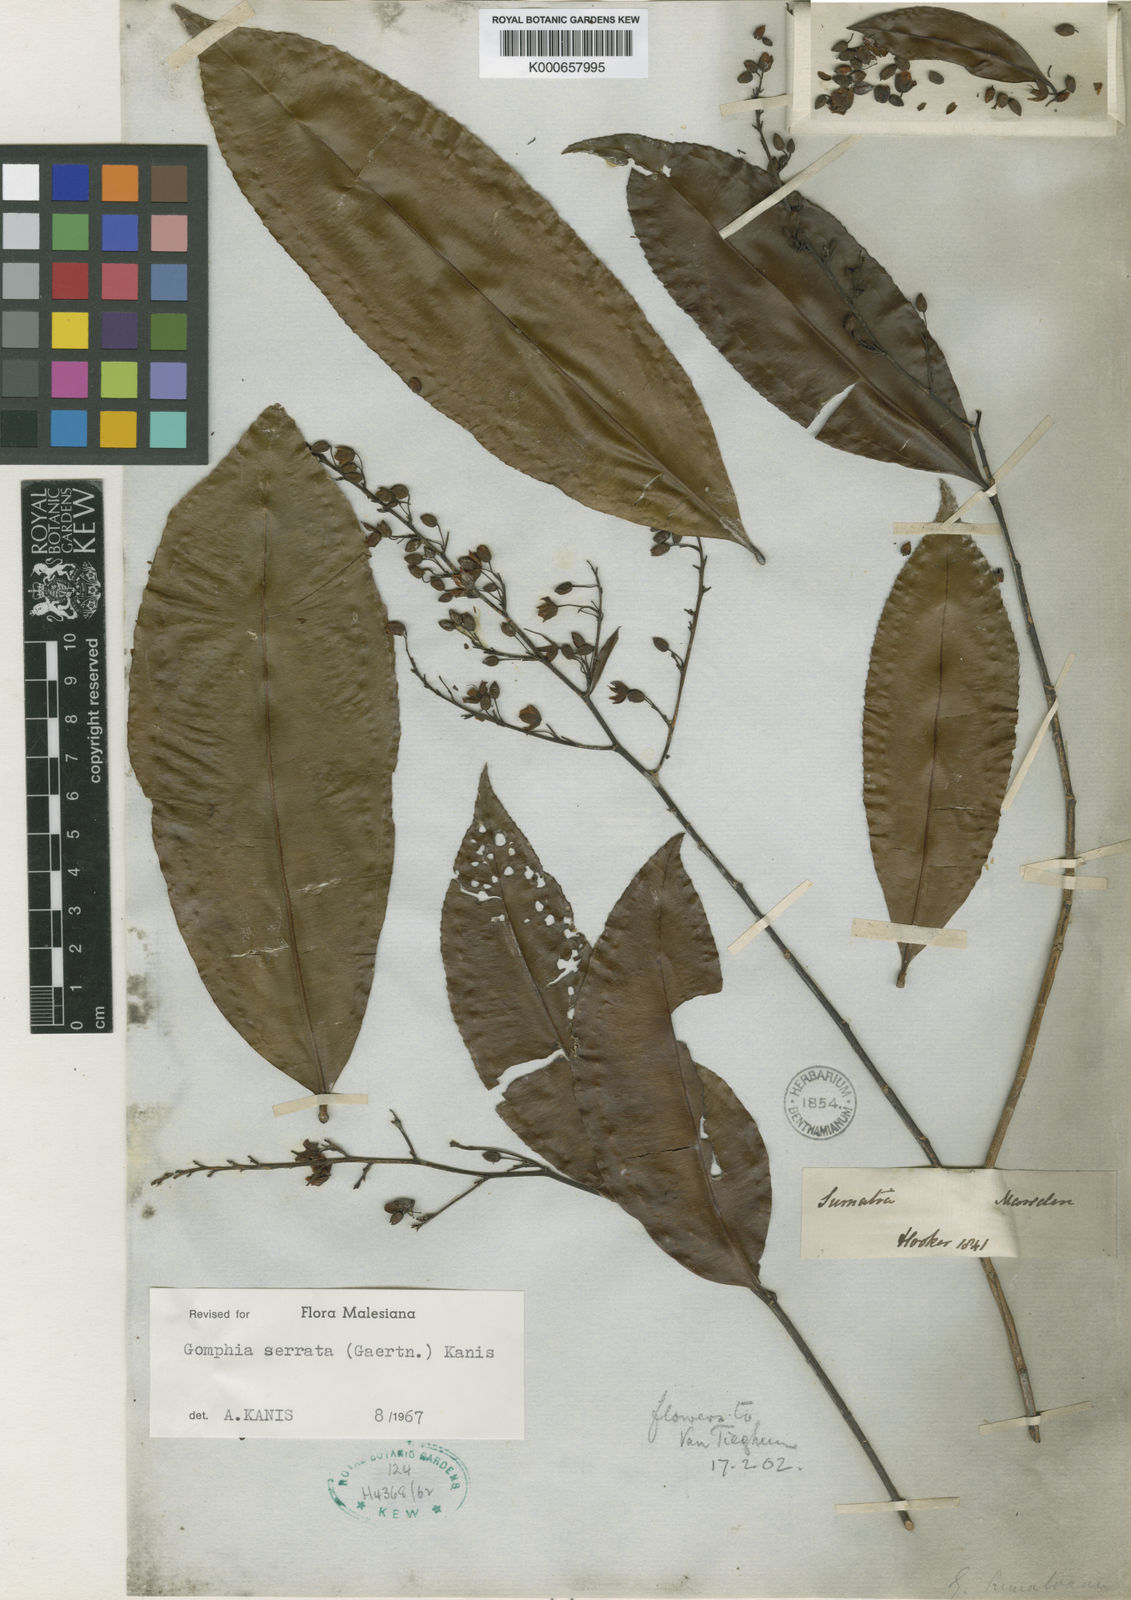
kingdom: Plantae
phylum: Tracheophyta
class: Magnoliopsida
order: Malpighiales
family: Ochnaceae
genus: Gomphia
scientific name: Gomphia serrata
